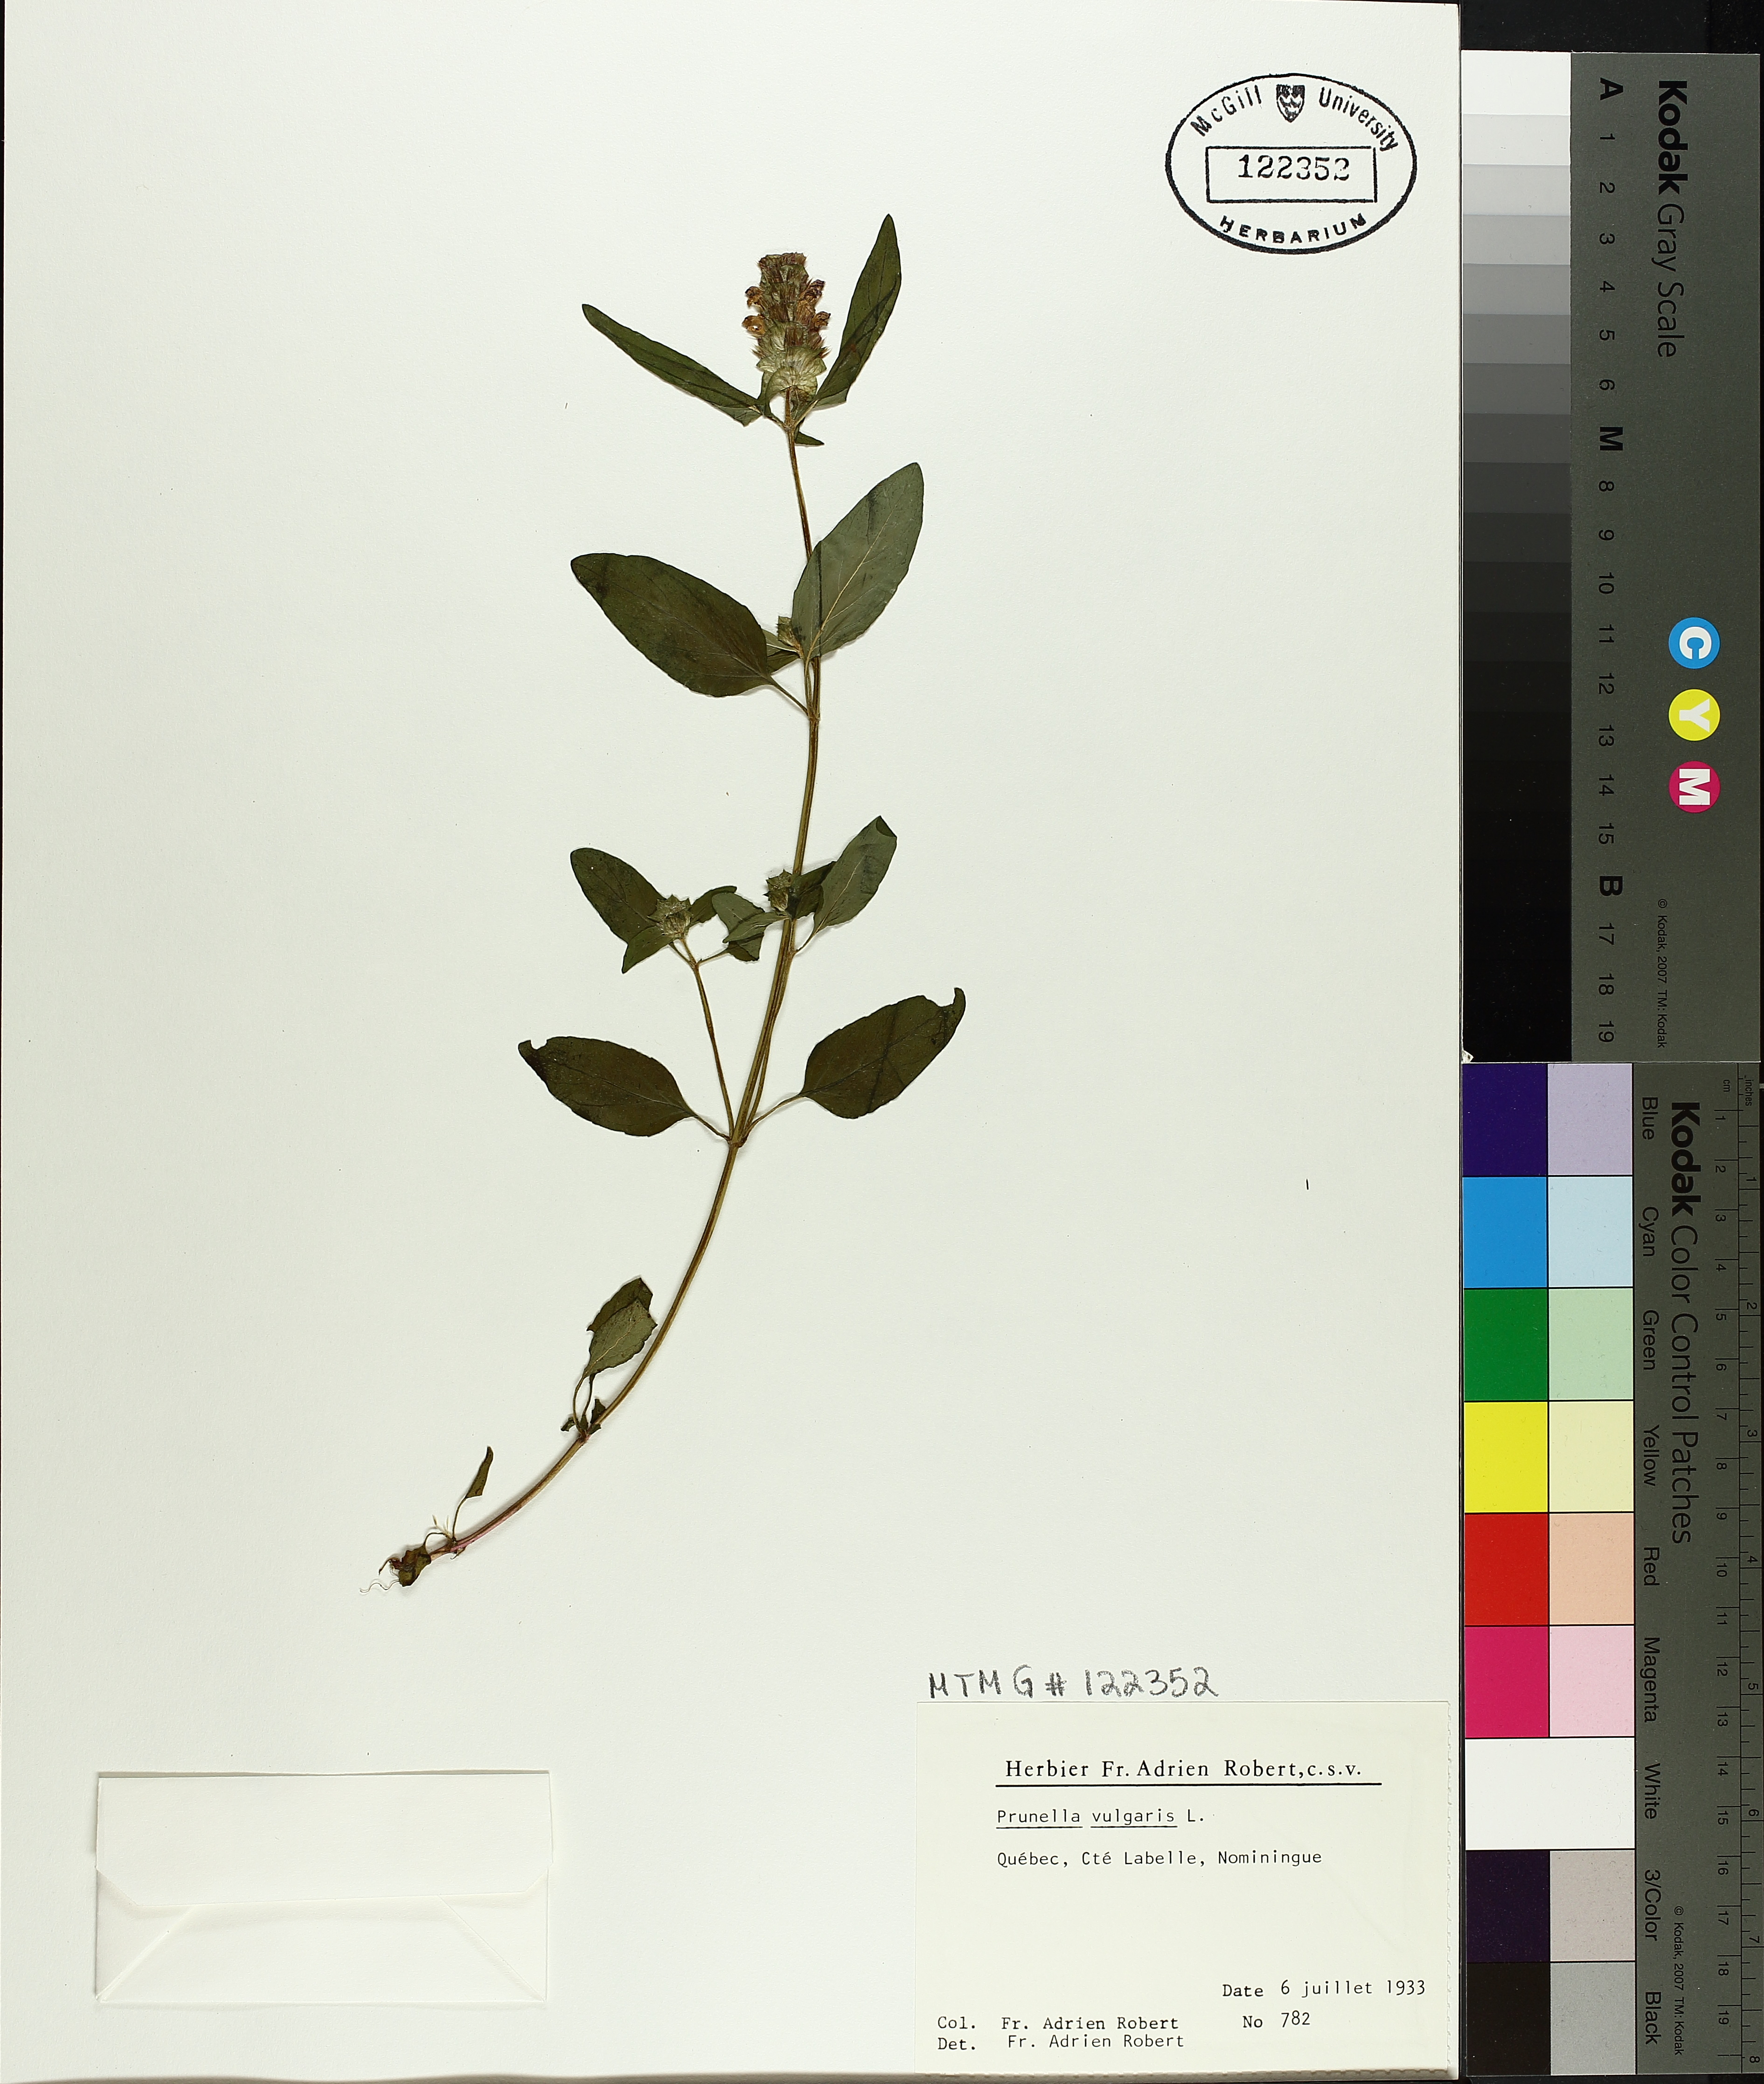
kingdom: Plantae
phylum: Tracheophyta
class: Magnoliopsida
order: Lamiales
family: Lamiaceae
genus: Prunella
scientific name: Prunella vulgaris
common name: Heal-all
